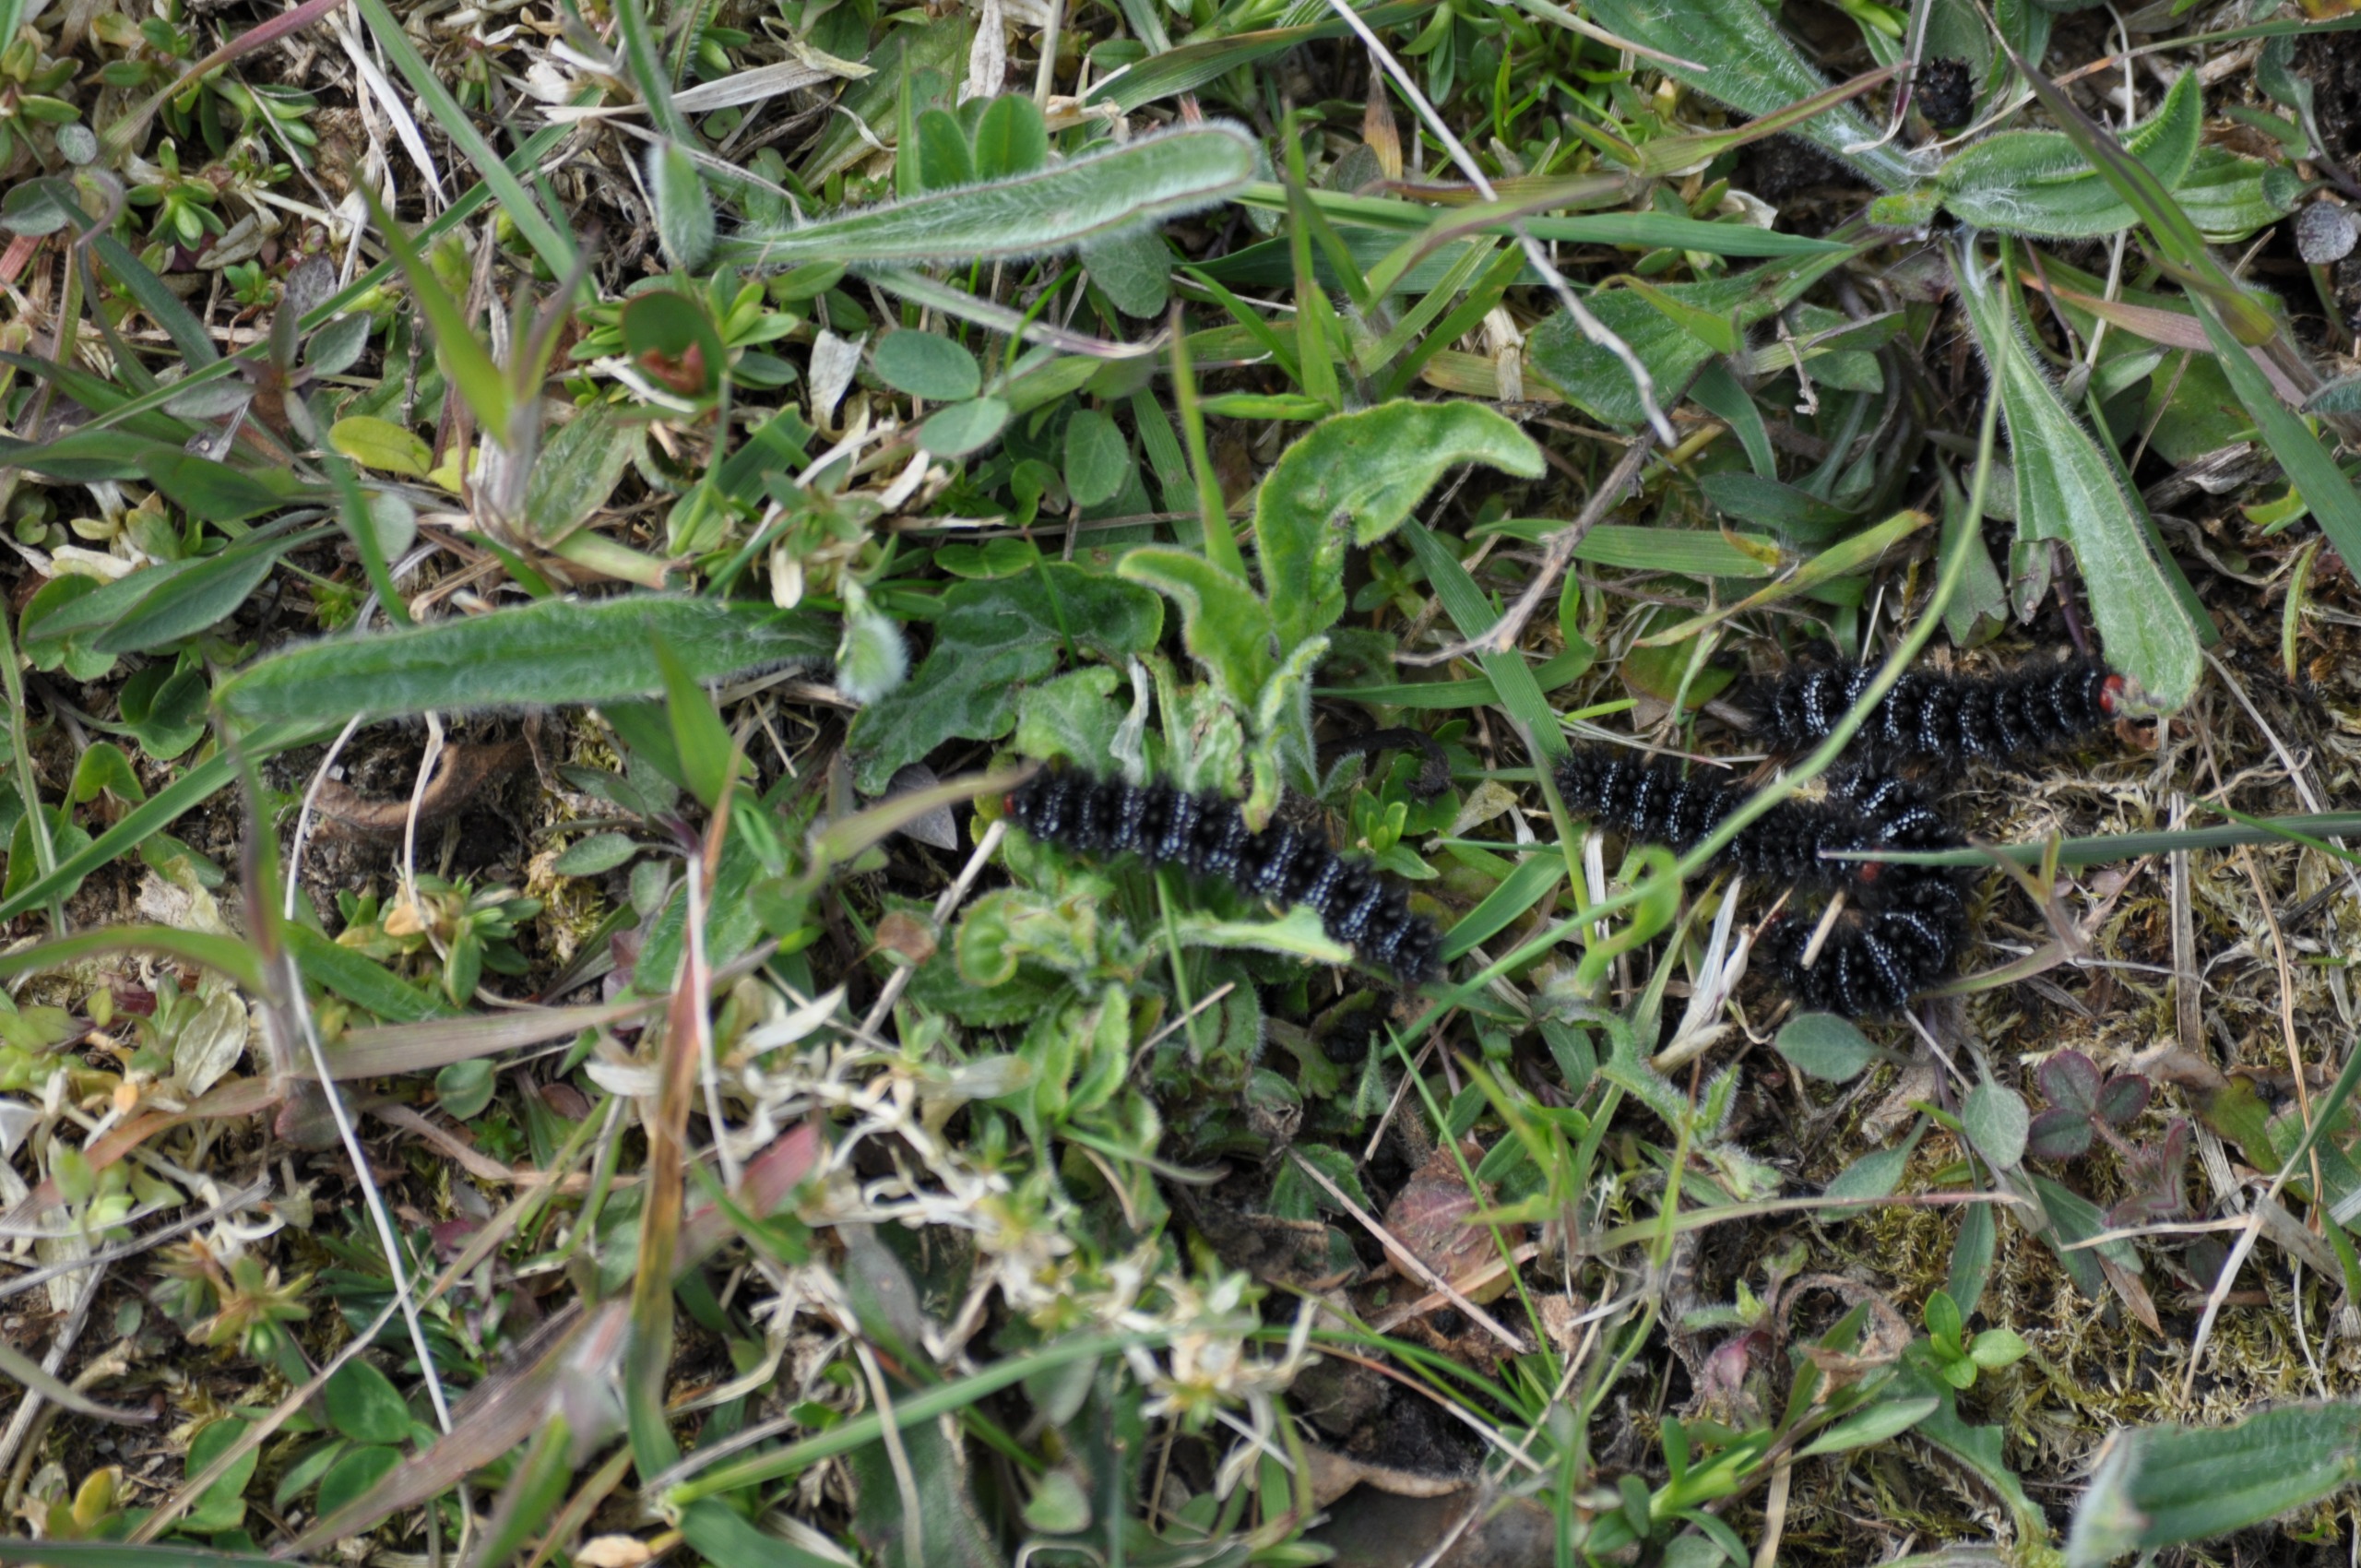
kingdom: Animalia
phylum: Arthropoda
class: Insecta
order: Lepidoptera
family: Nymphalidae
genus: Melitaea
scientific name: Melitaea cinxia
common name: Okkergul pletvinge
